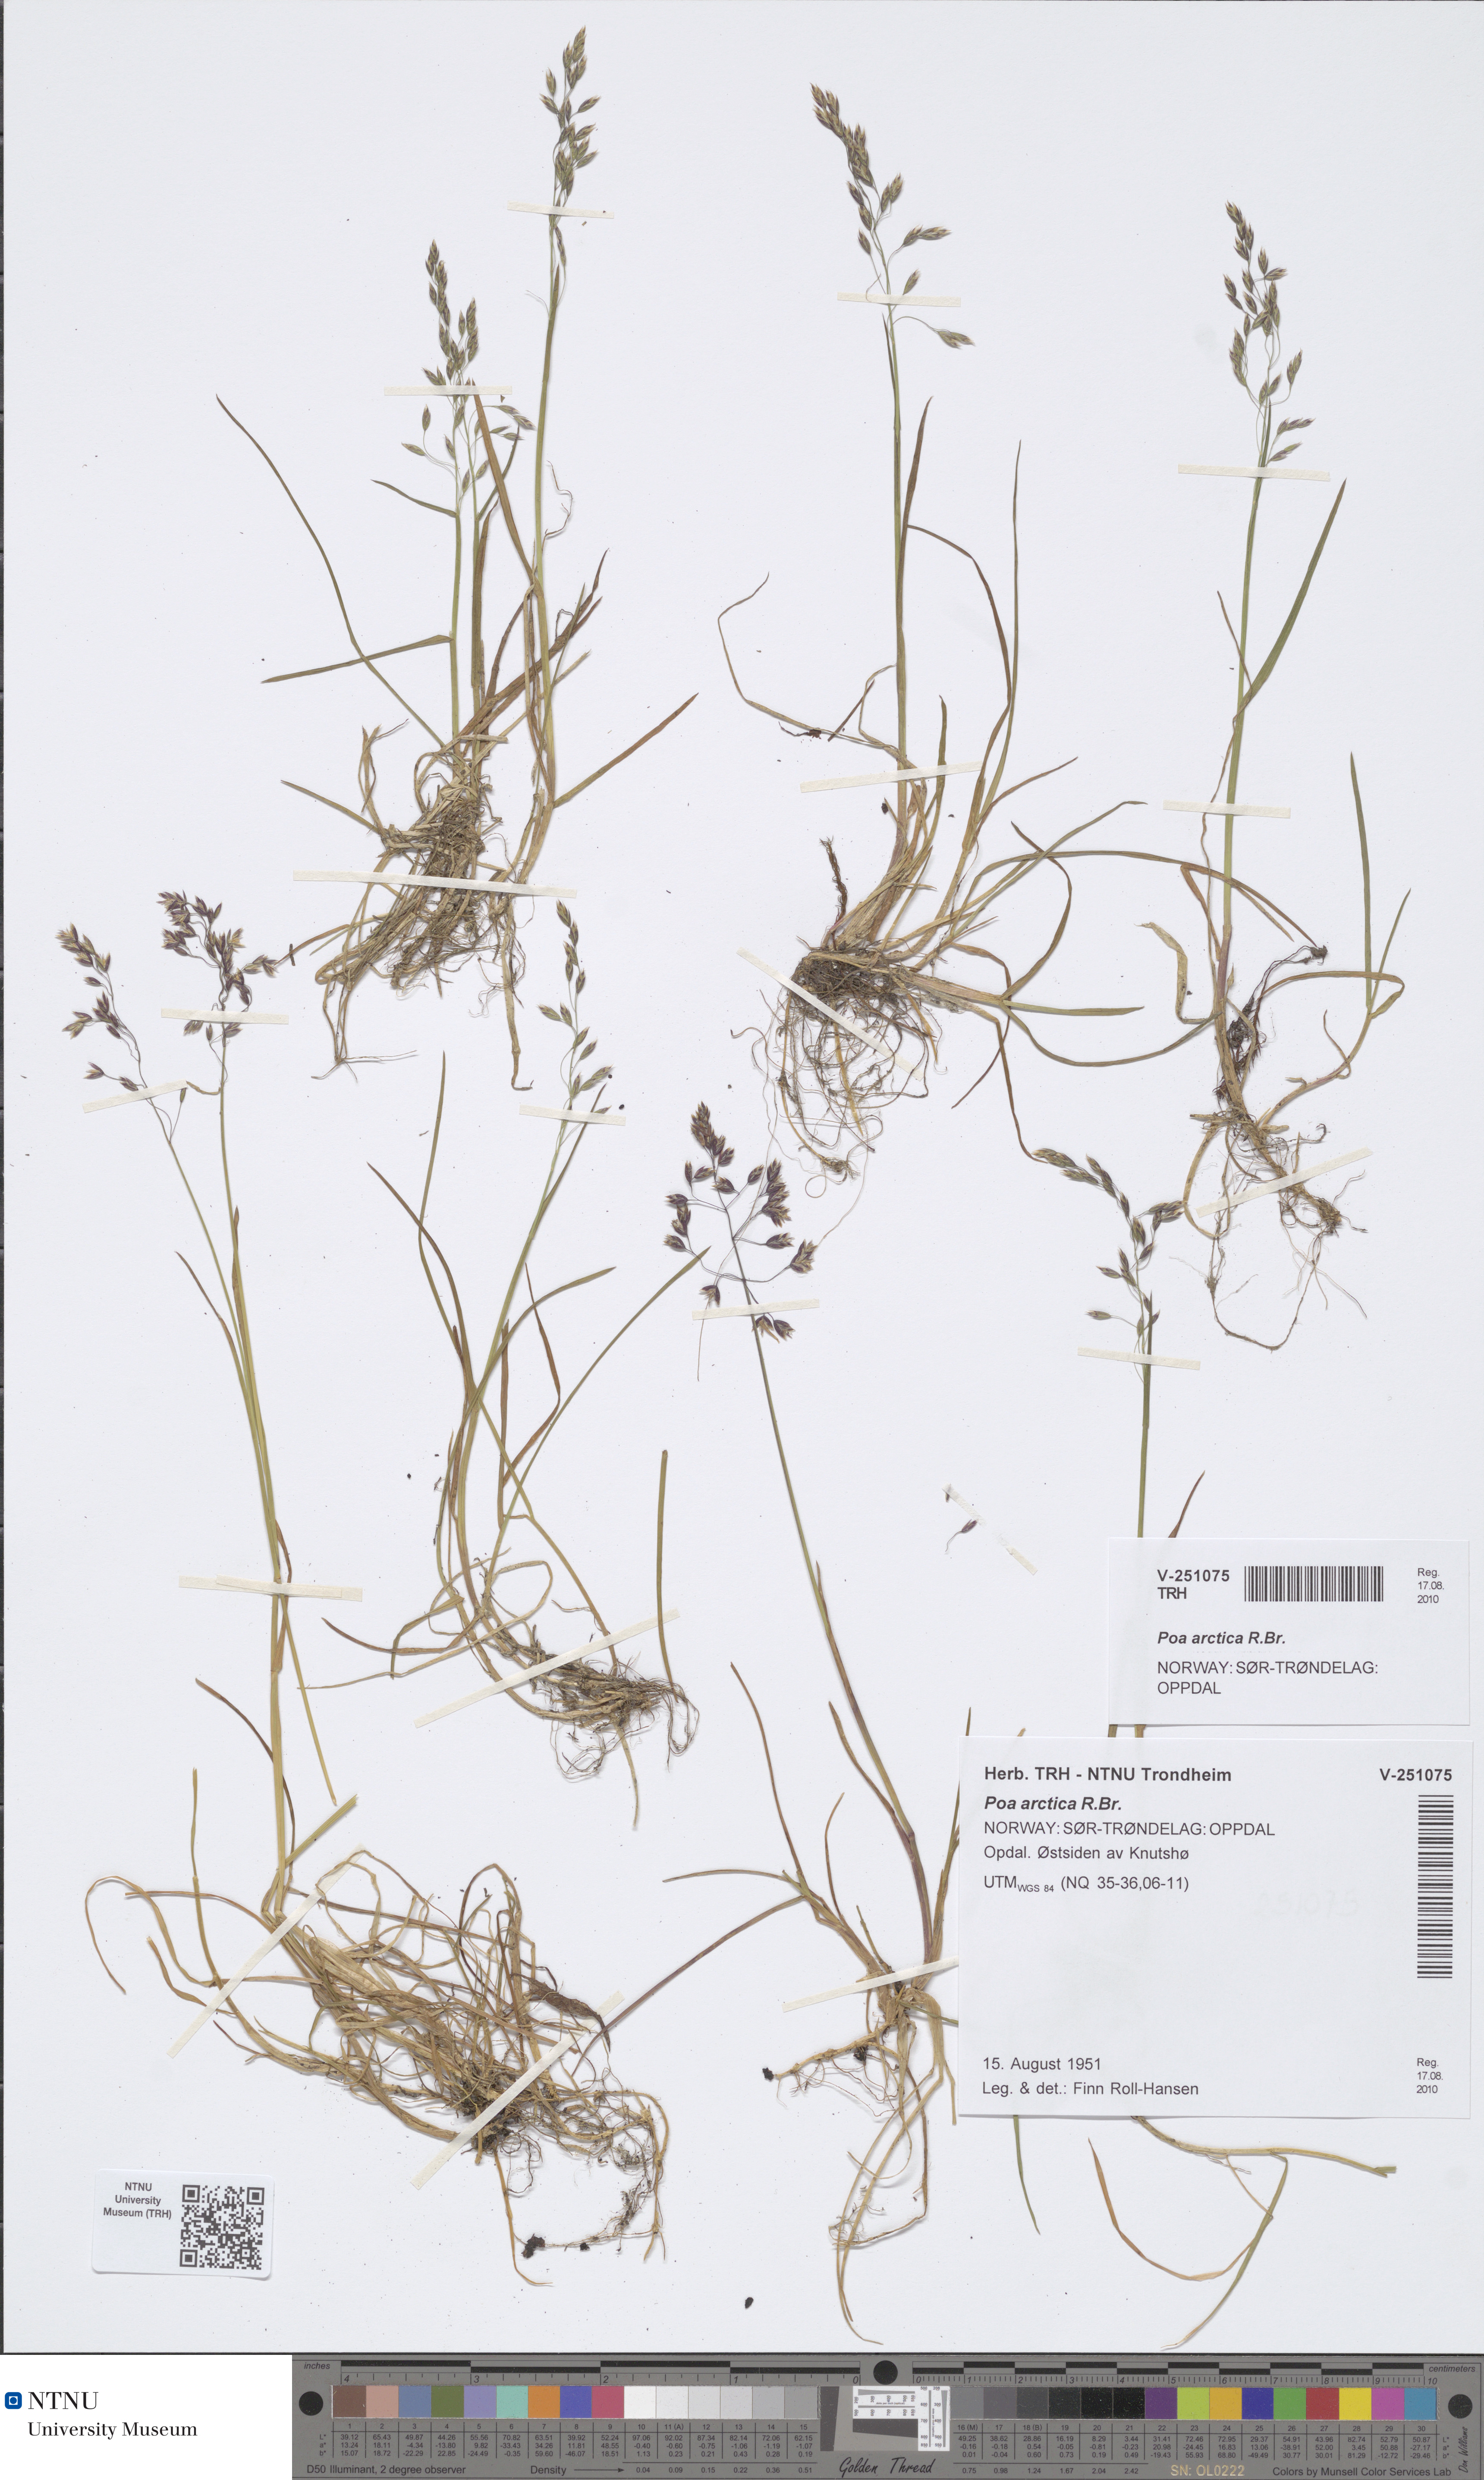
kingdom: Plantae
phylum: Tracheophyta
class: Liliopsida
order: Poales
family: Poaceae
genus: Poa
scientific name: Poa arctica
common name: Arctic bluegrass
